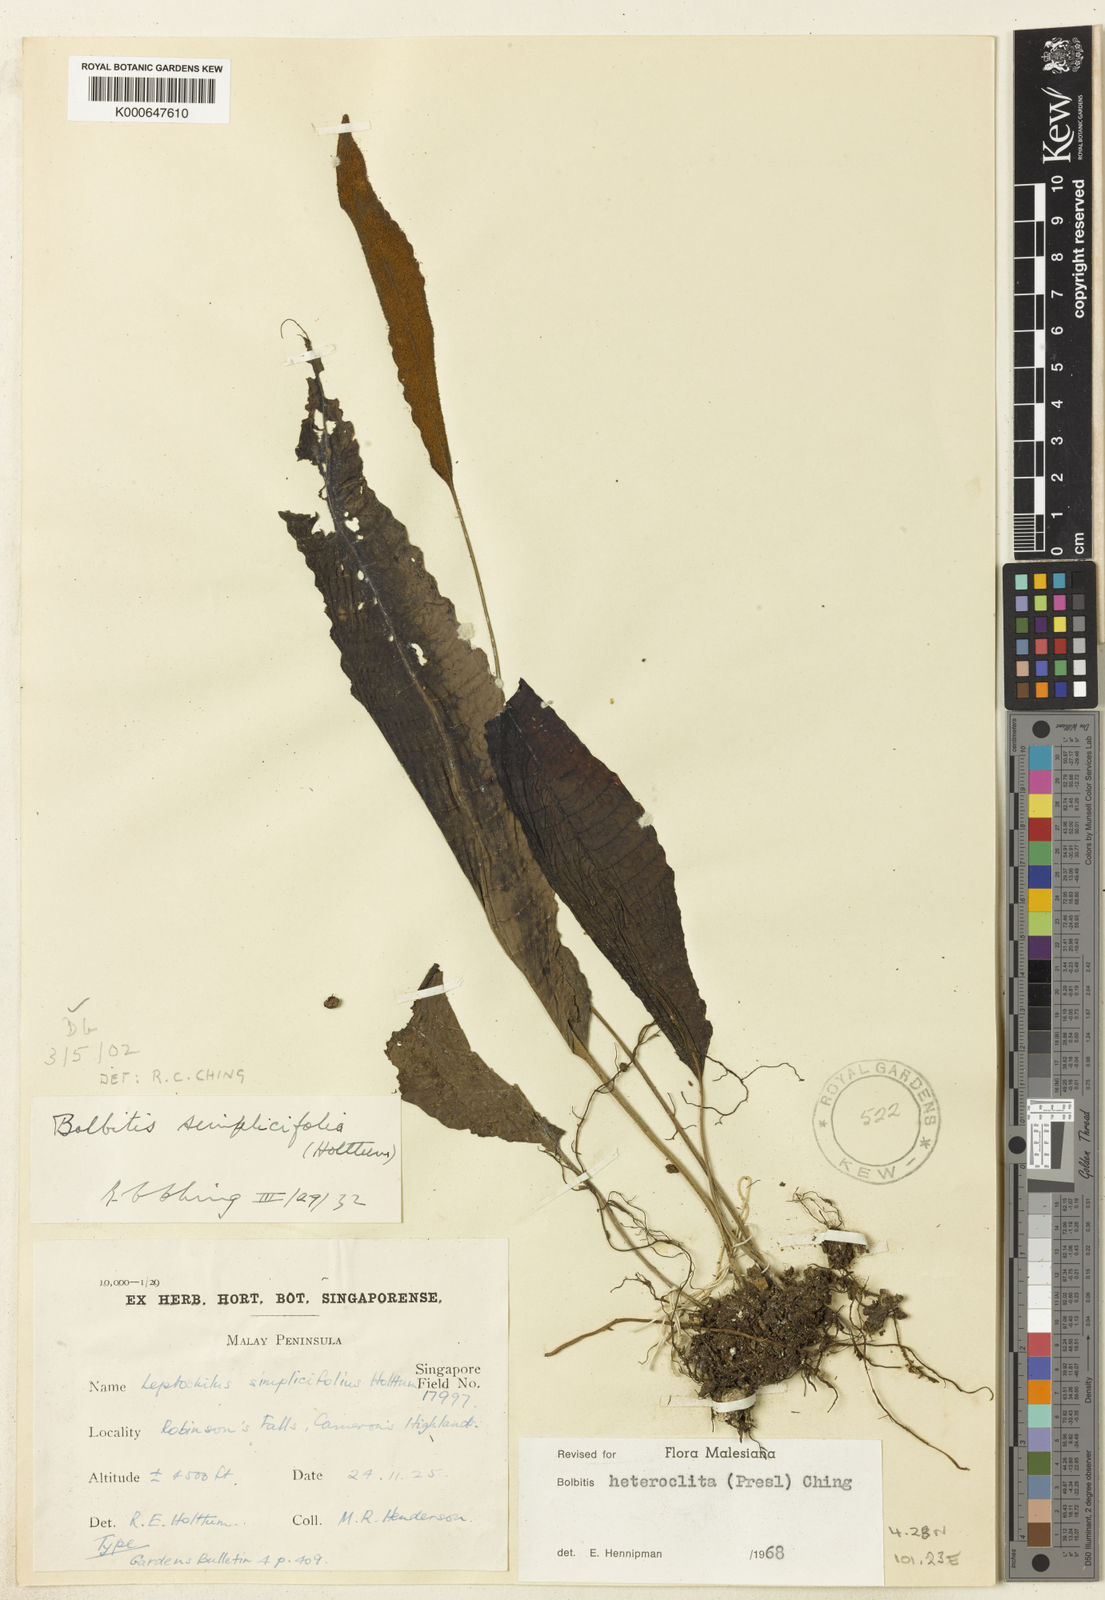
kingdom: Plantae
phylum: Tracheophyta
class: Polypodiopsida
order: Polypodiales
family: Dryopteridaceae
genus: Bolbitis
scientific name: Bolbitis heteroclita
